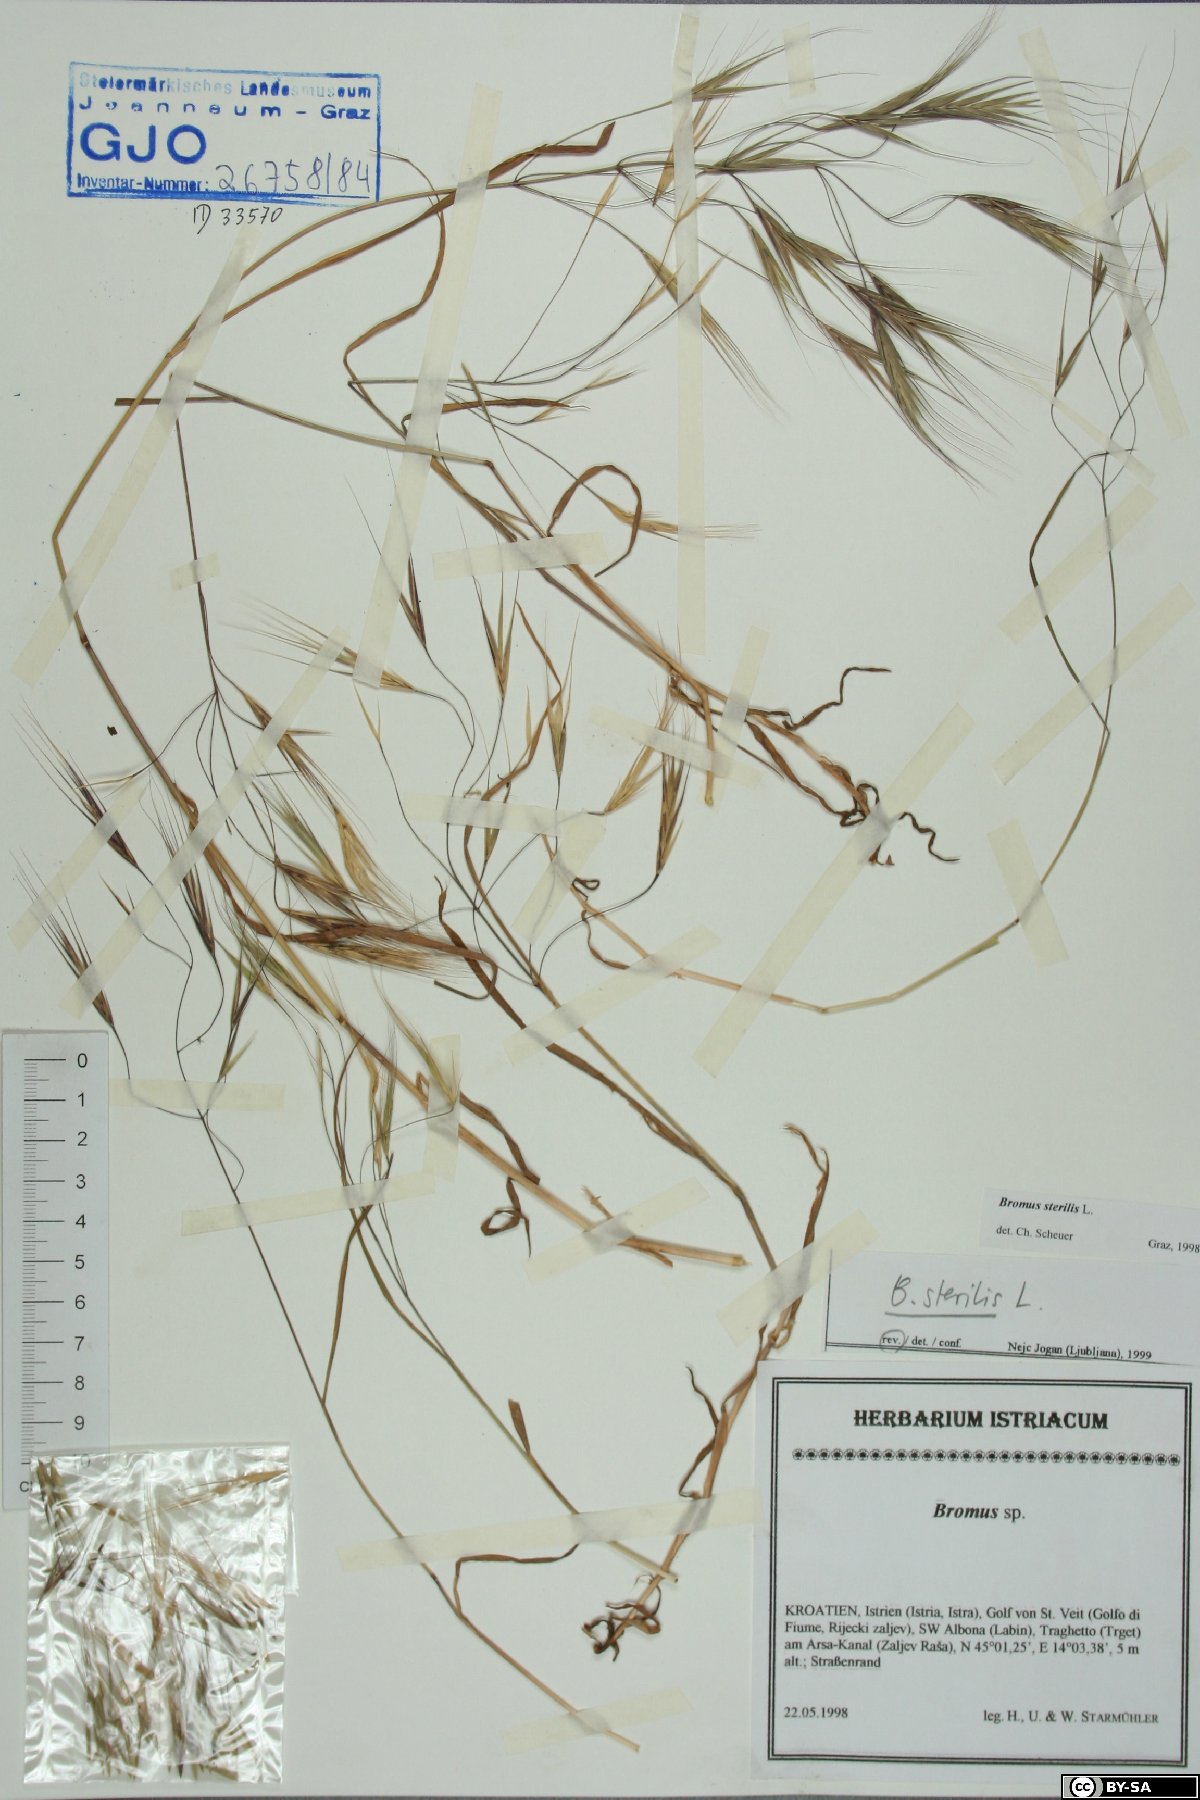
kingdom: Plantae
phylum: Tracheophyta
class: Liliopsida
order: Poales
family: Poaceae
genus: Bromus
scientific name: Bromus sterilis
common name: Poverty brome
